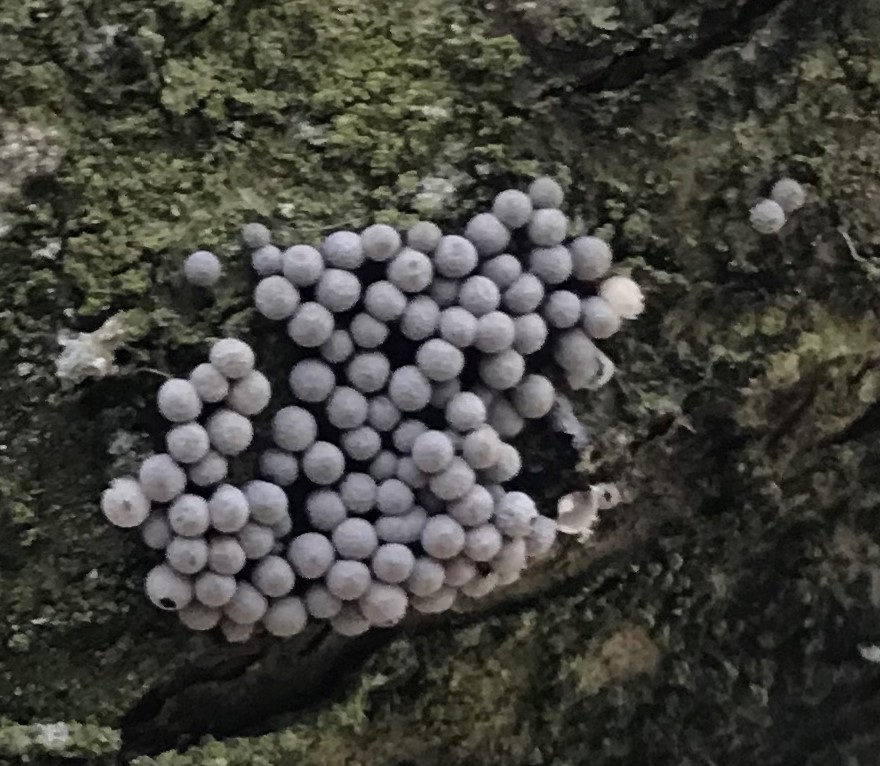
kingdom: Protozoa
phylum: Mycetozoa
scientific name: Mycetozoa
